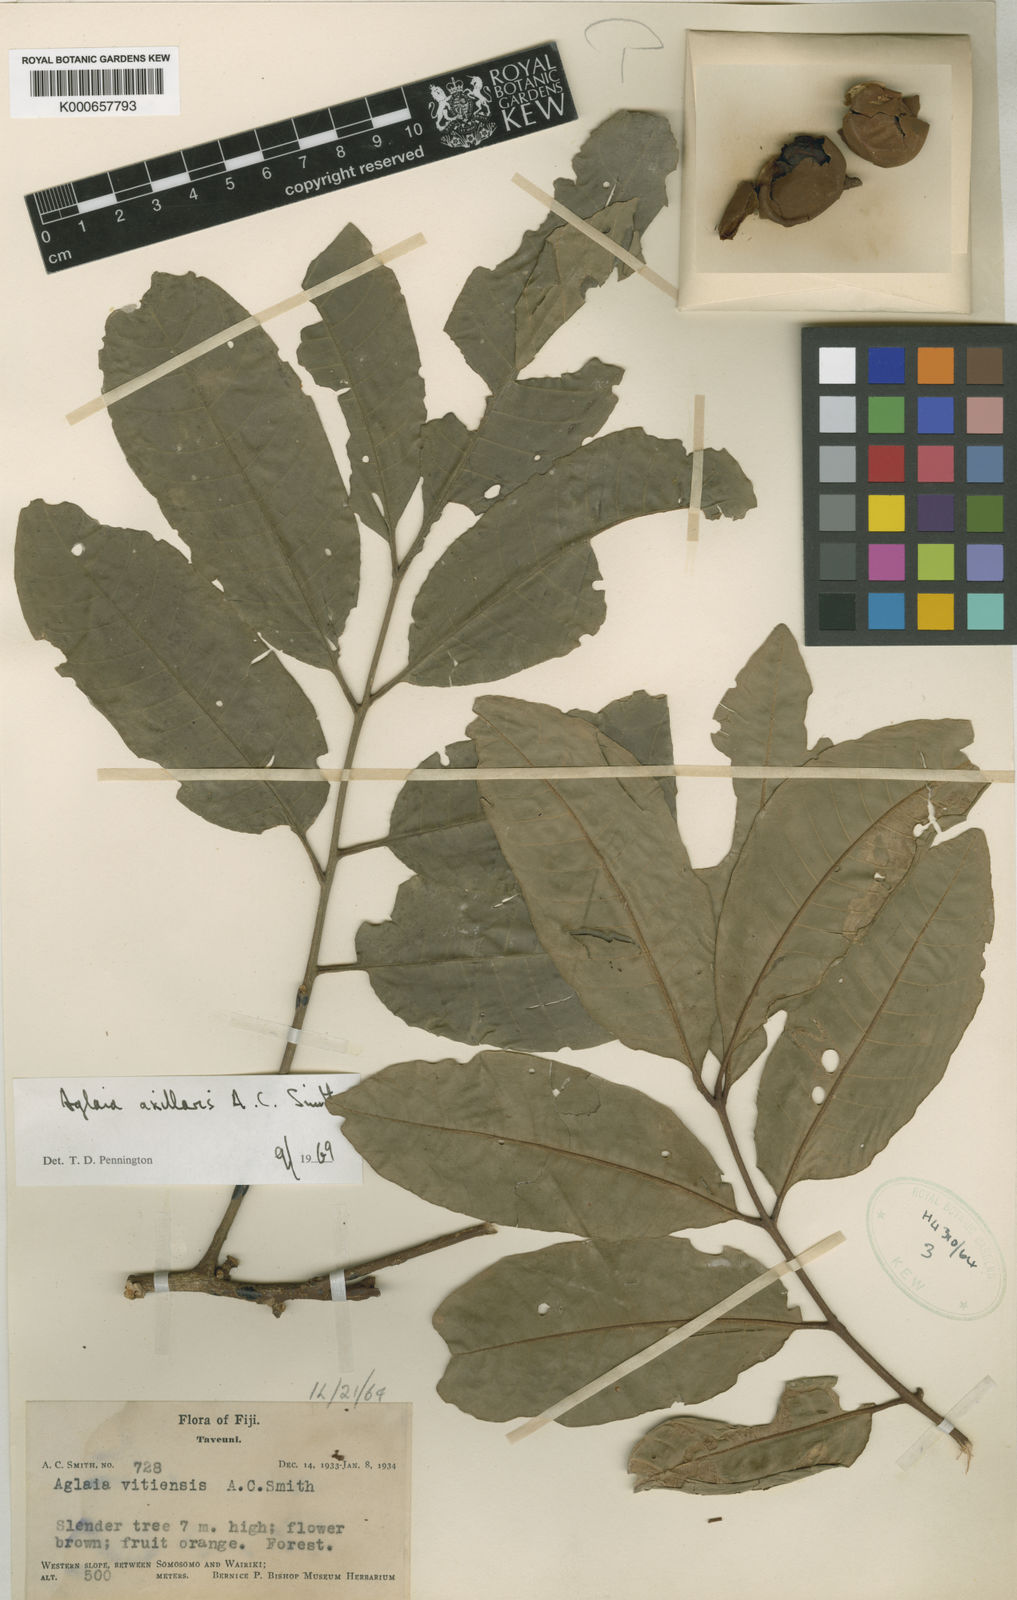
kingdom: Plantae
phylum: Tracheophyta
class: Magnoliopsida
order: Sapindales
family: Meliaceae
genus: Aglaia
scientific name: Aglaia vitiensis
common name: Lindiyango
